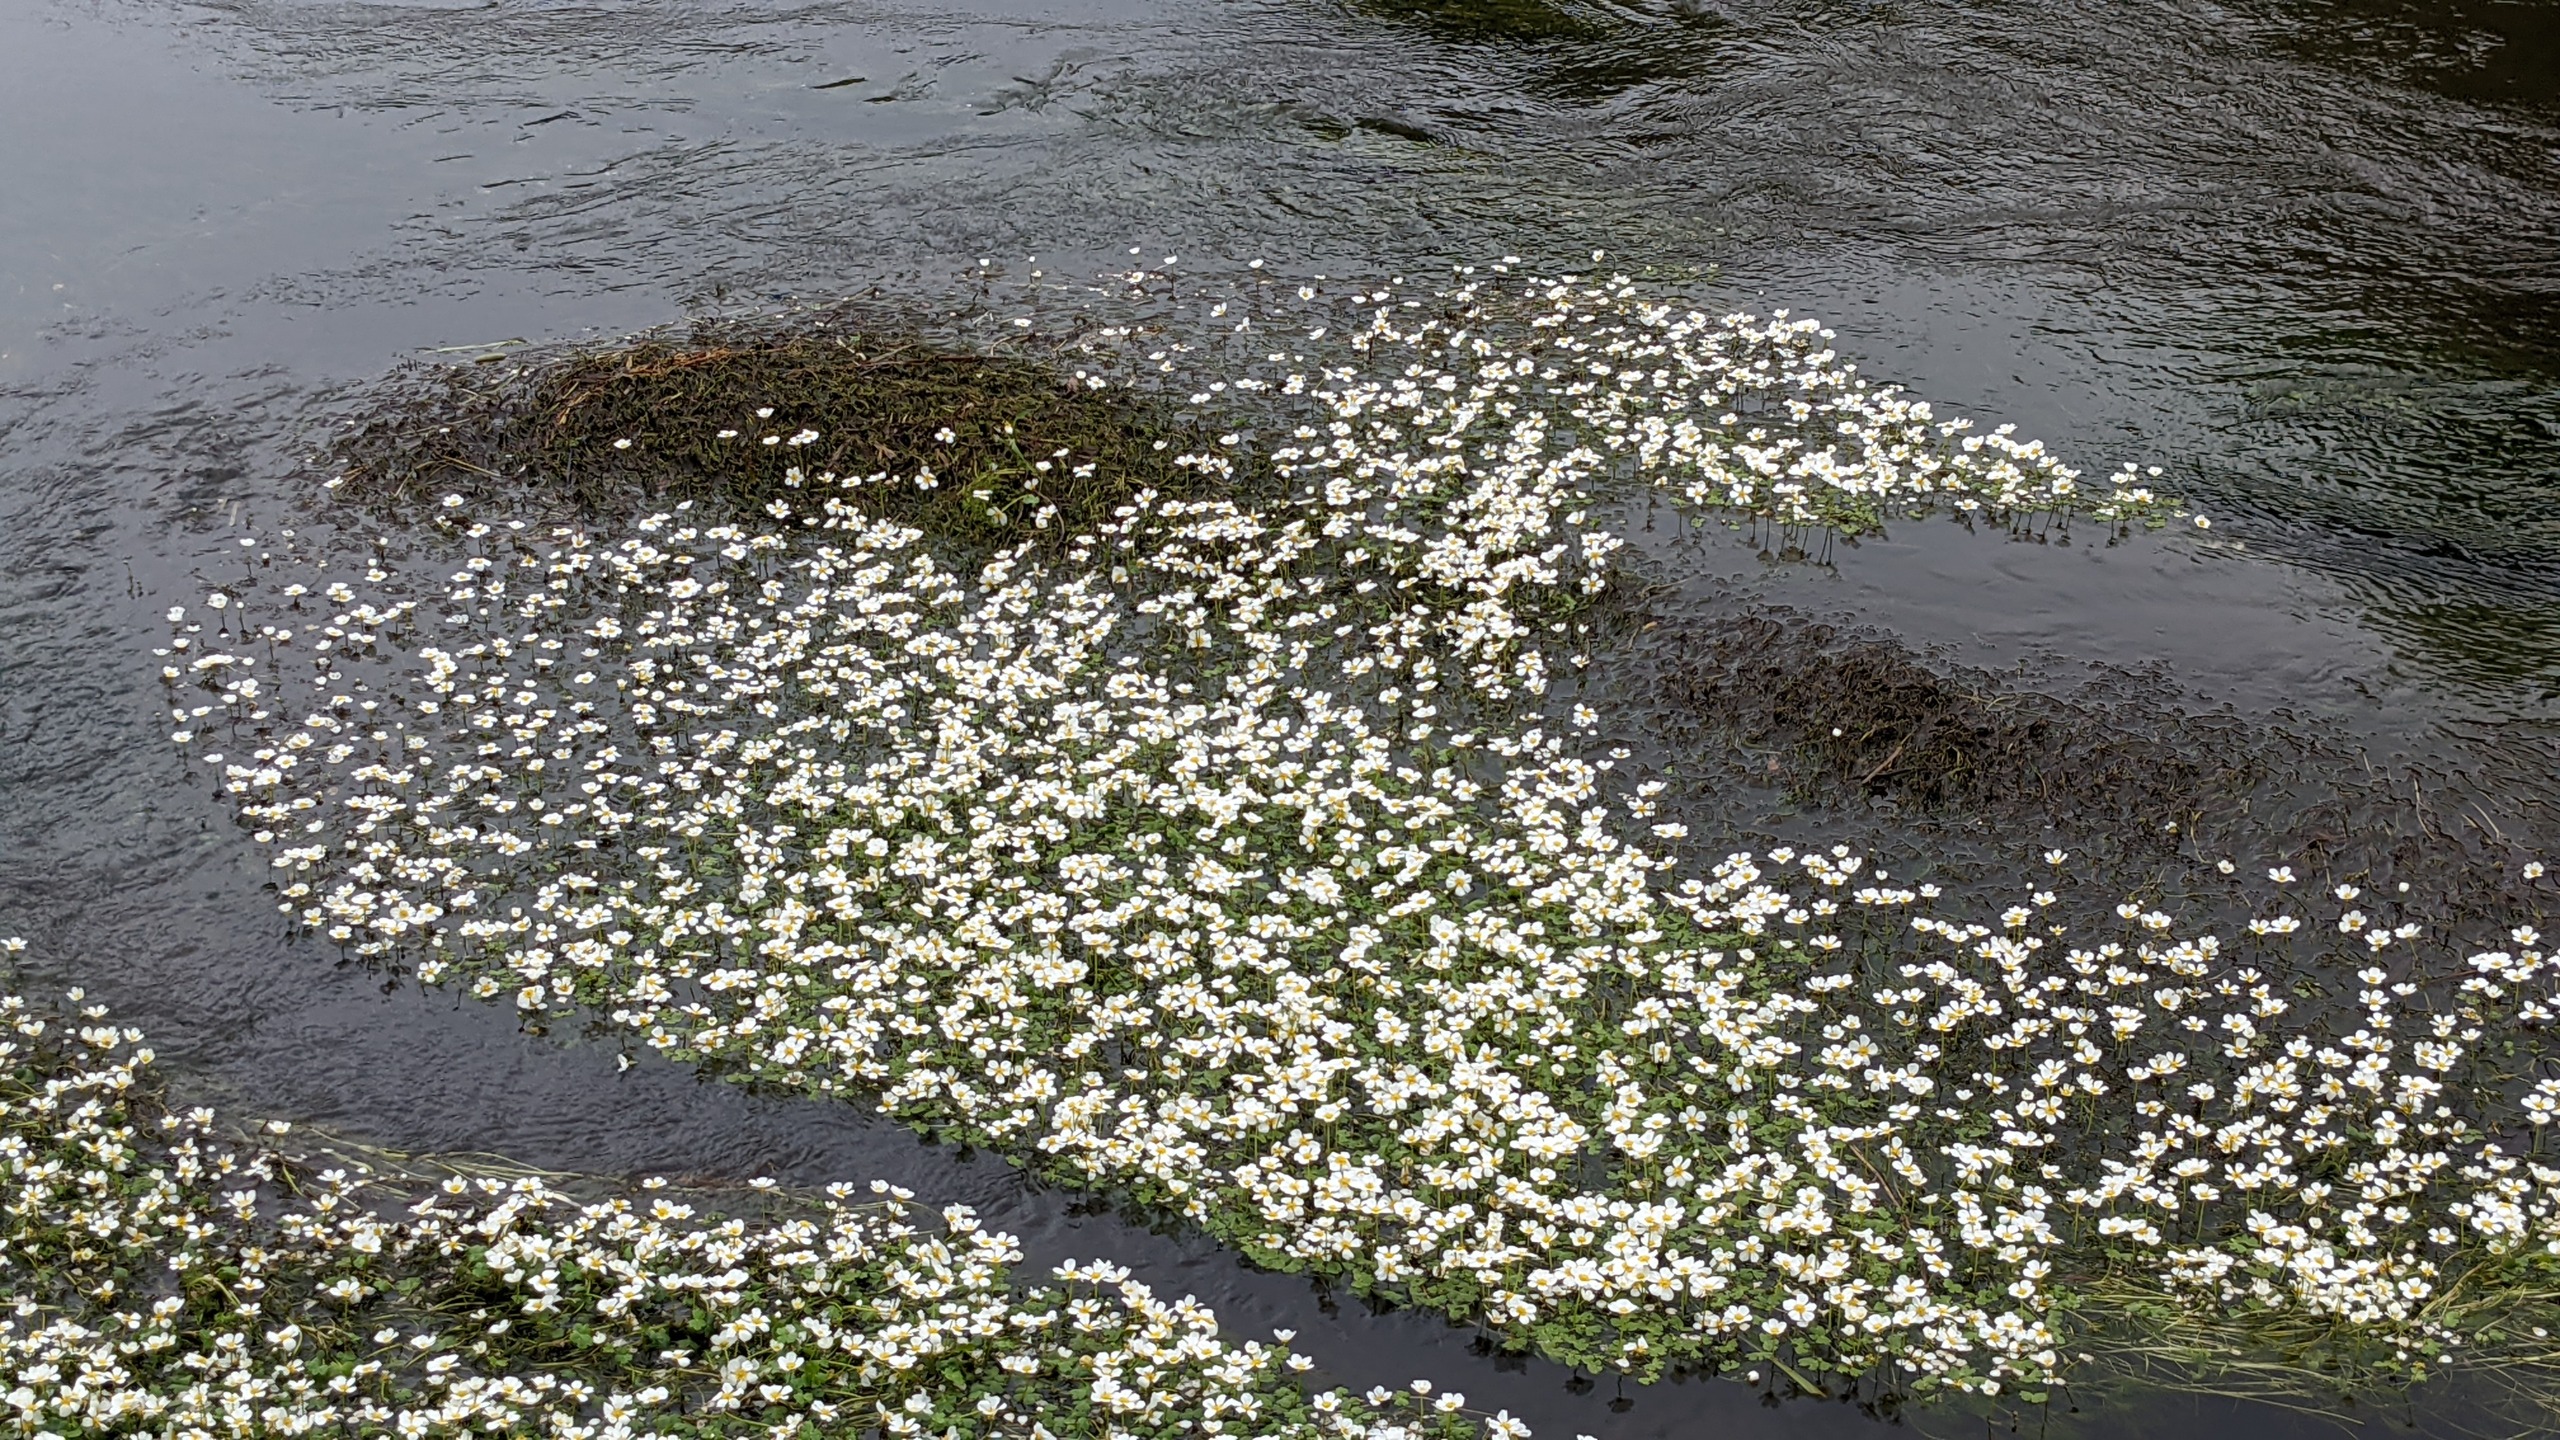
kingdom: Plantae
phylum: Tracheophyta
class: Magnoliopsida
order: Ranunculales
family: Ranunculaceae
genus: Ranunculus
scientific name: Ranunculus peltatus
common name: Storblomstret vandranunkel
